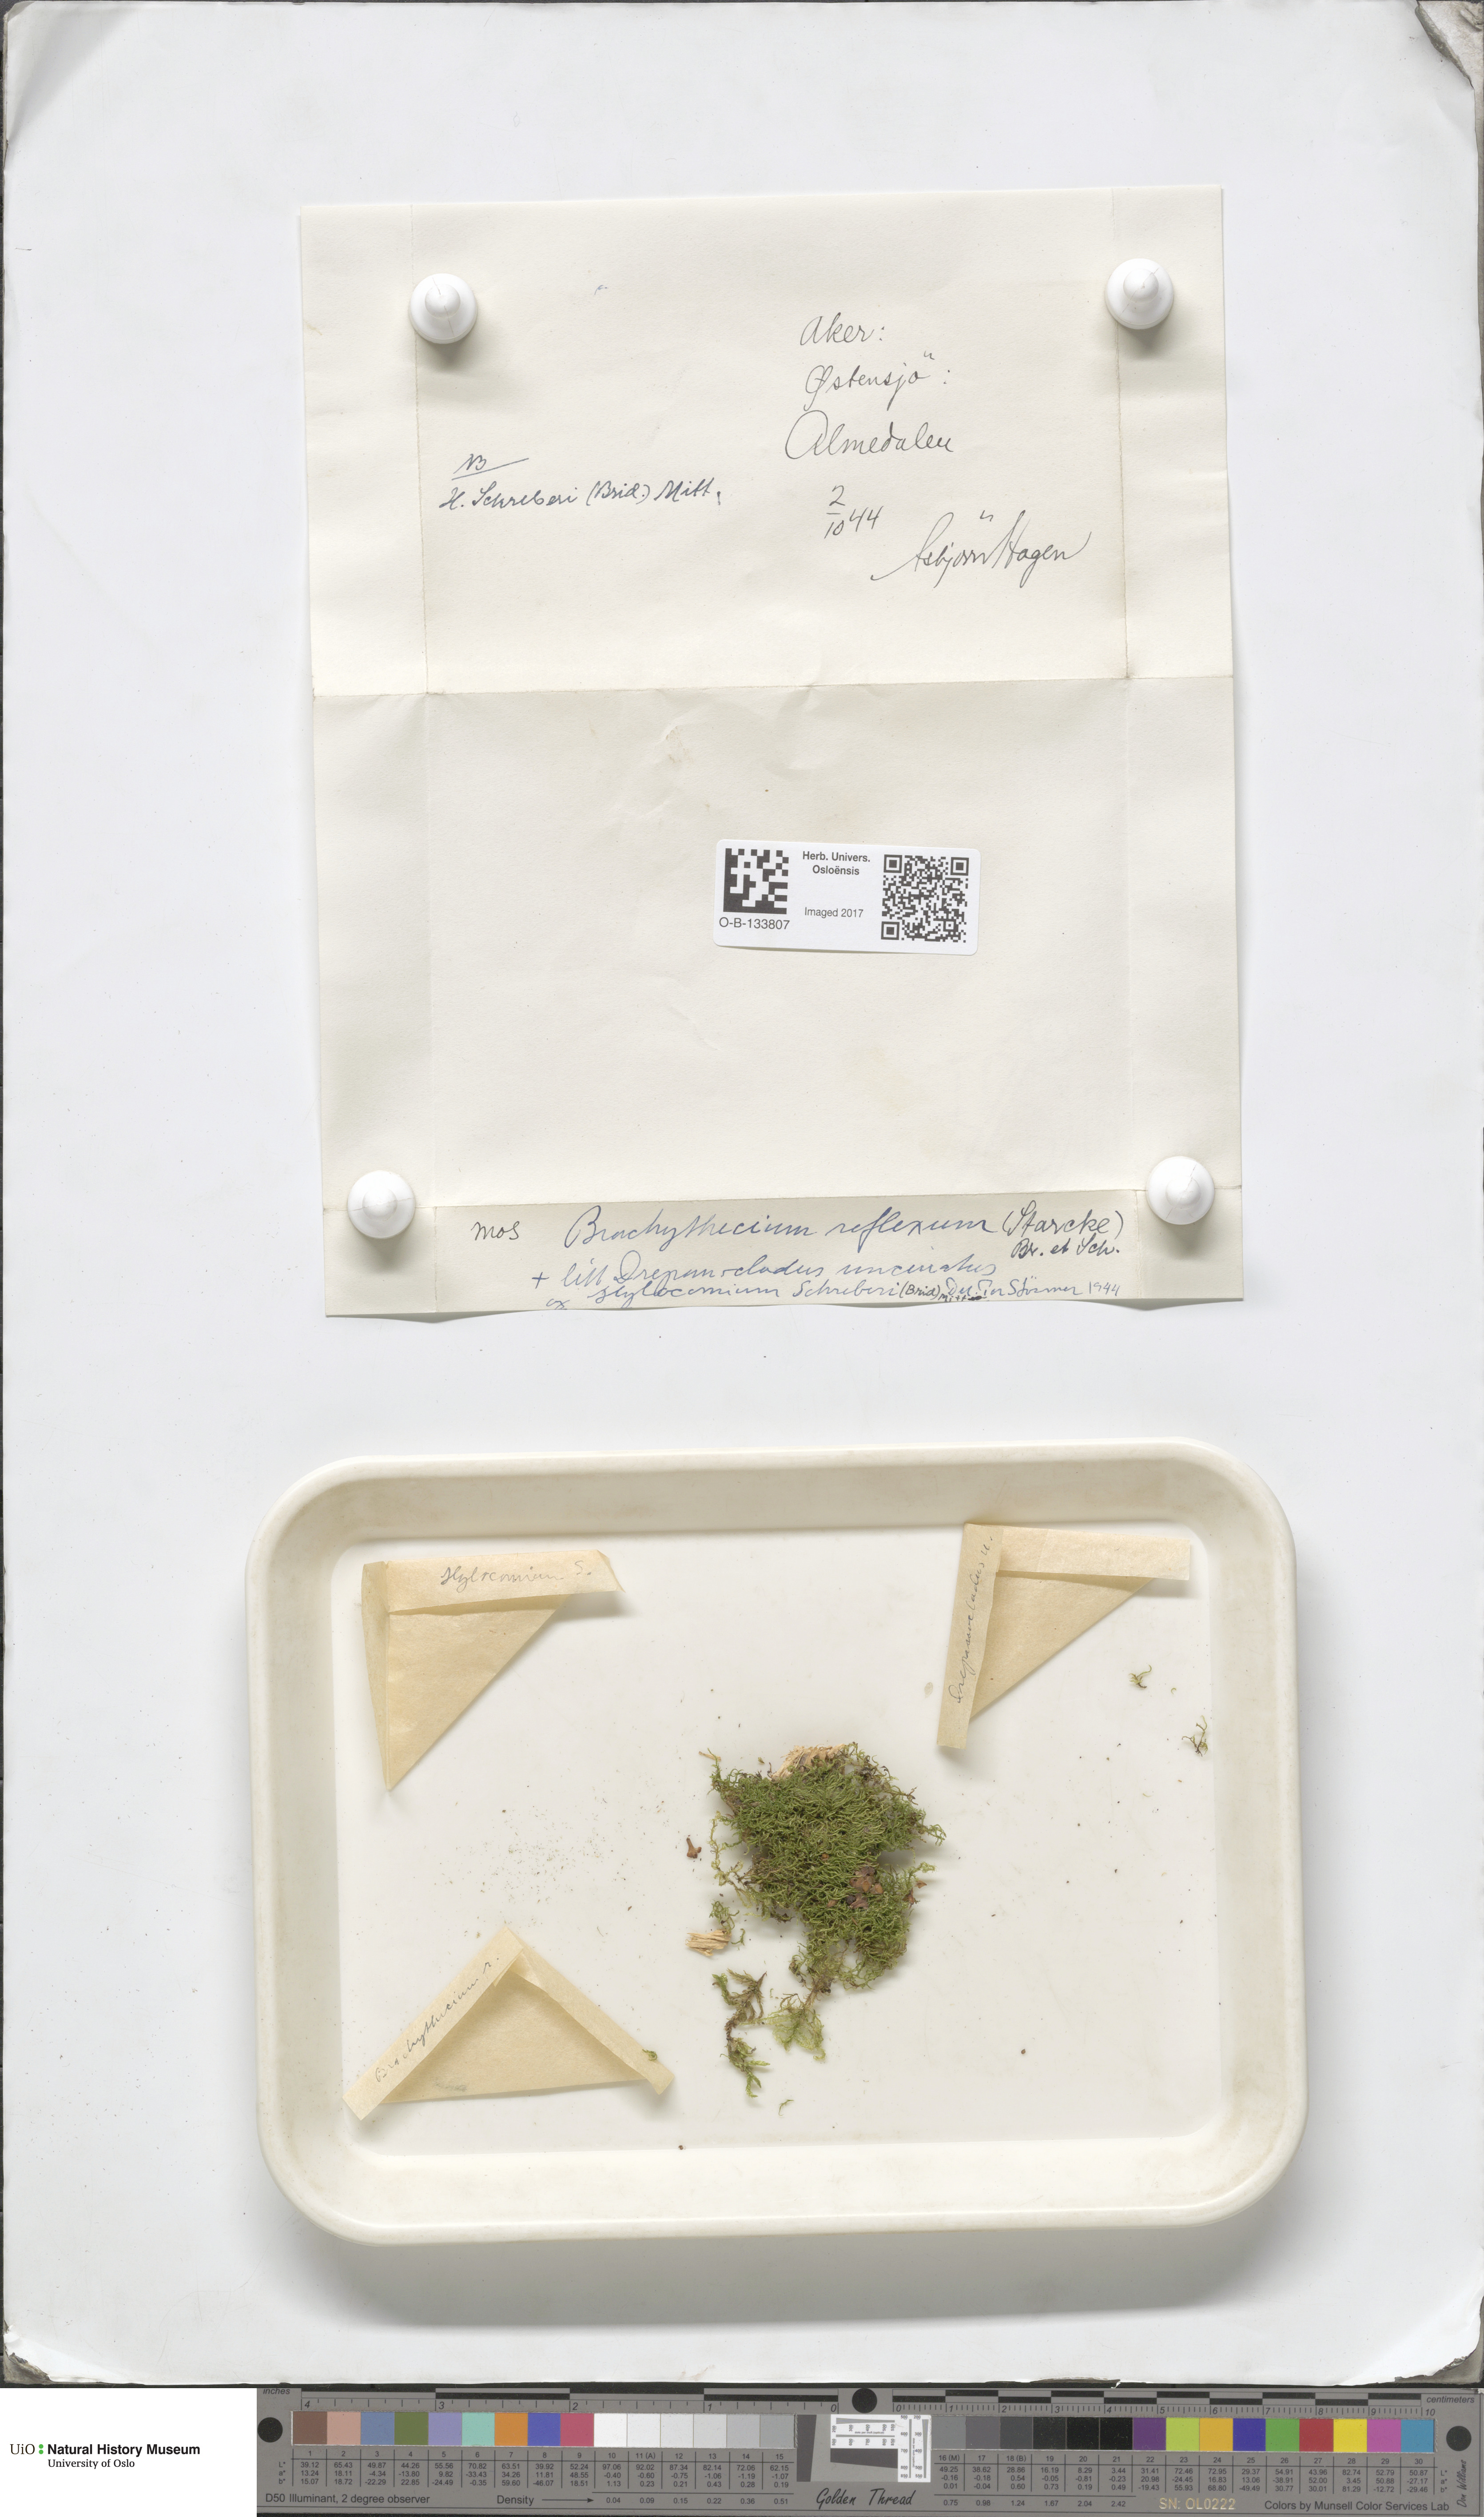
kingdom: Plantae
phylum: Bryophyta
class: Bryopsida
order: Hypnales
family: Brachytheciaceae
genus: Sciuro-hypnum
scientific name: Sciuro-hypnum reflexum
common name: Reflexed feather-moss
